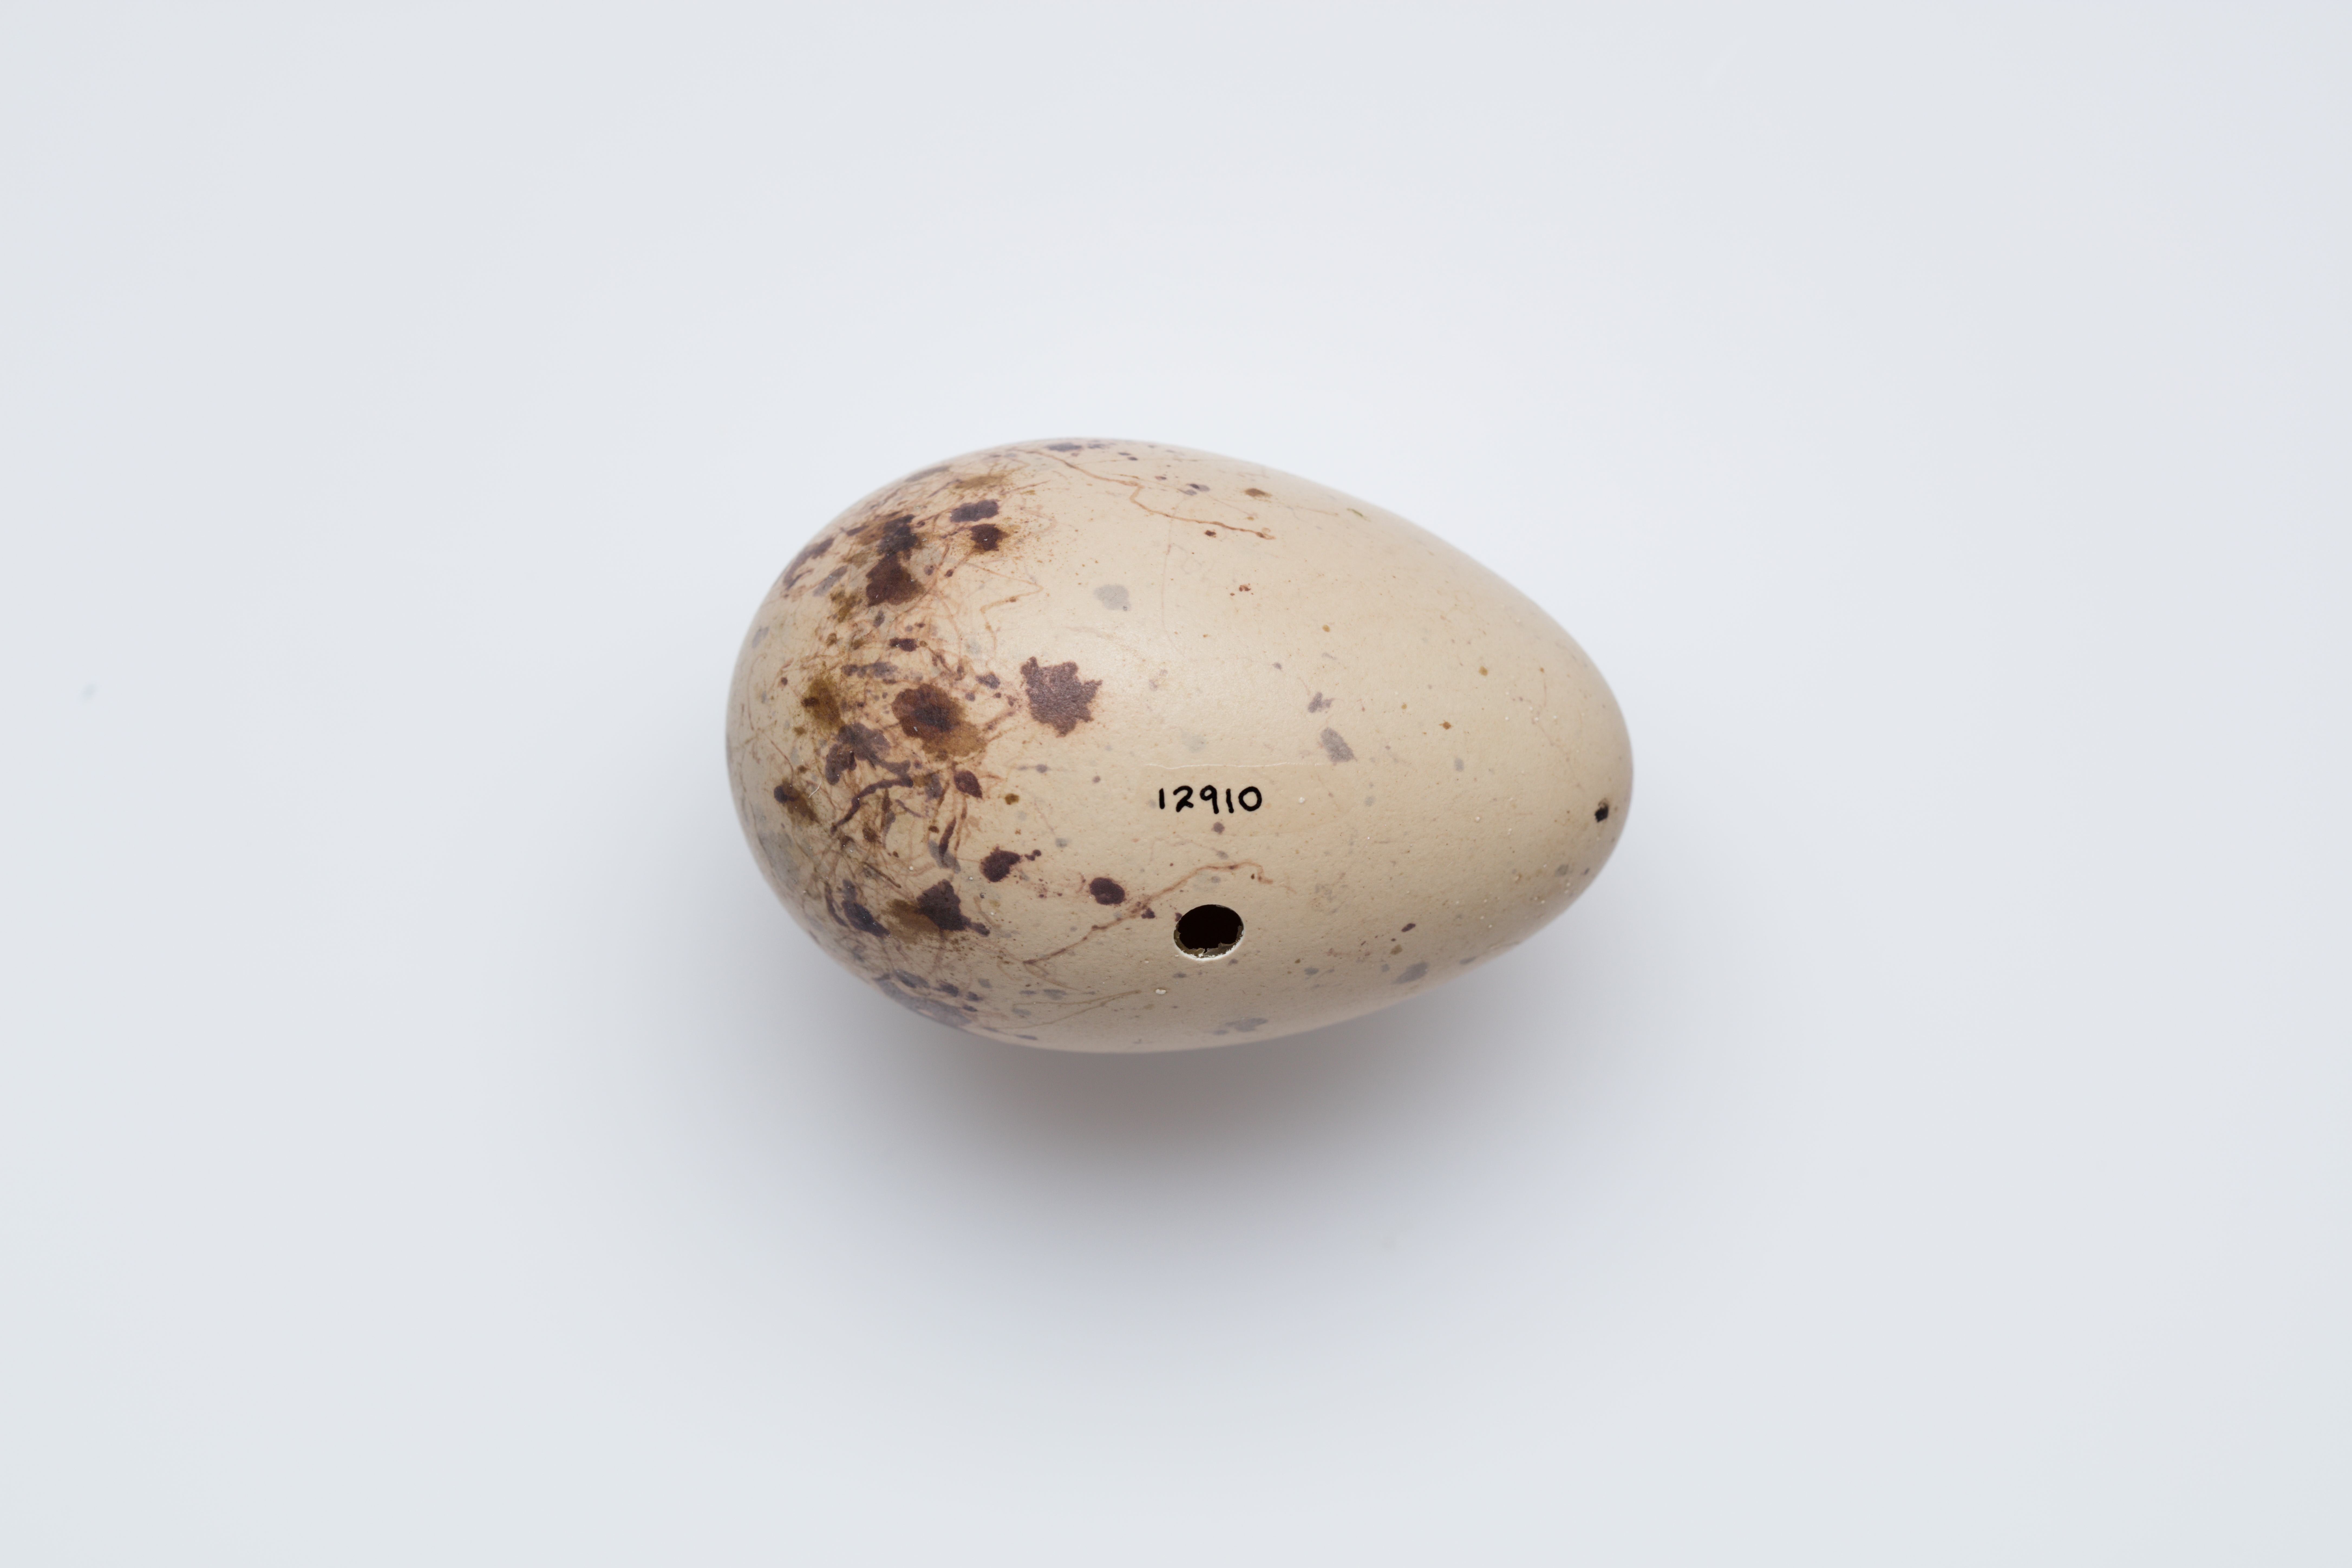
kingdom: Animalia
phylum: Chordata
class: Aves
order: Gruiformes
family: Rallidae
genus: Porphyrio
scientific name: Porphyrio melanotus
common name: Australasian swamphen
